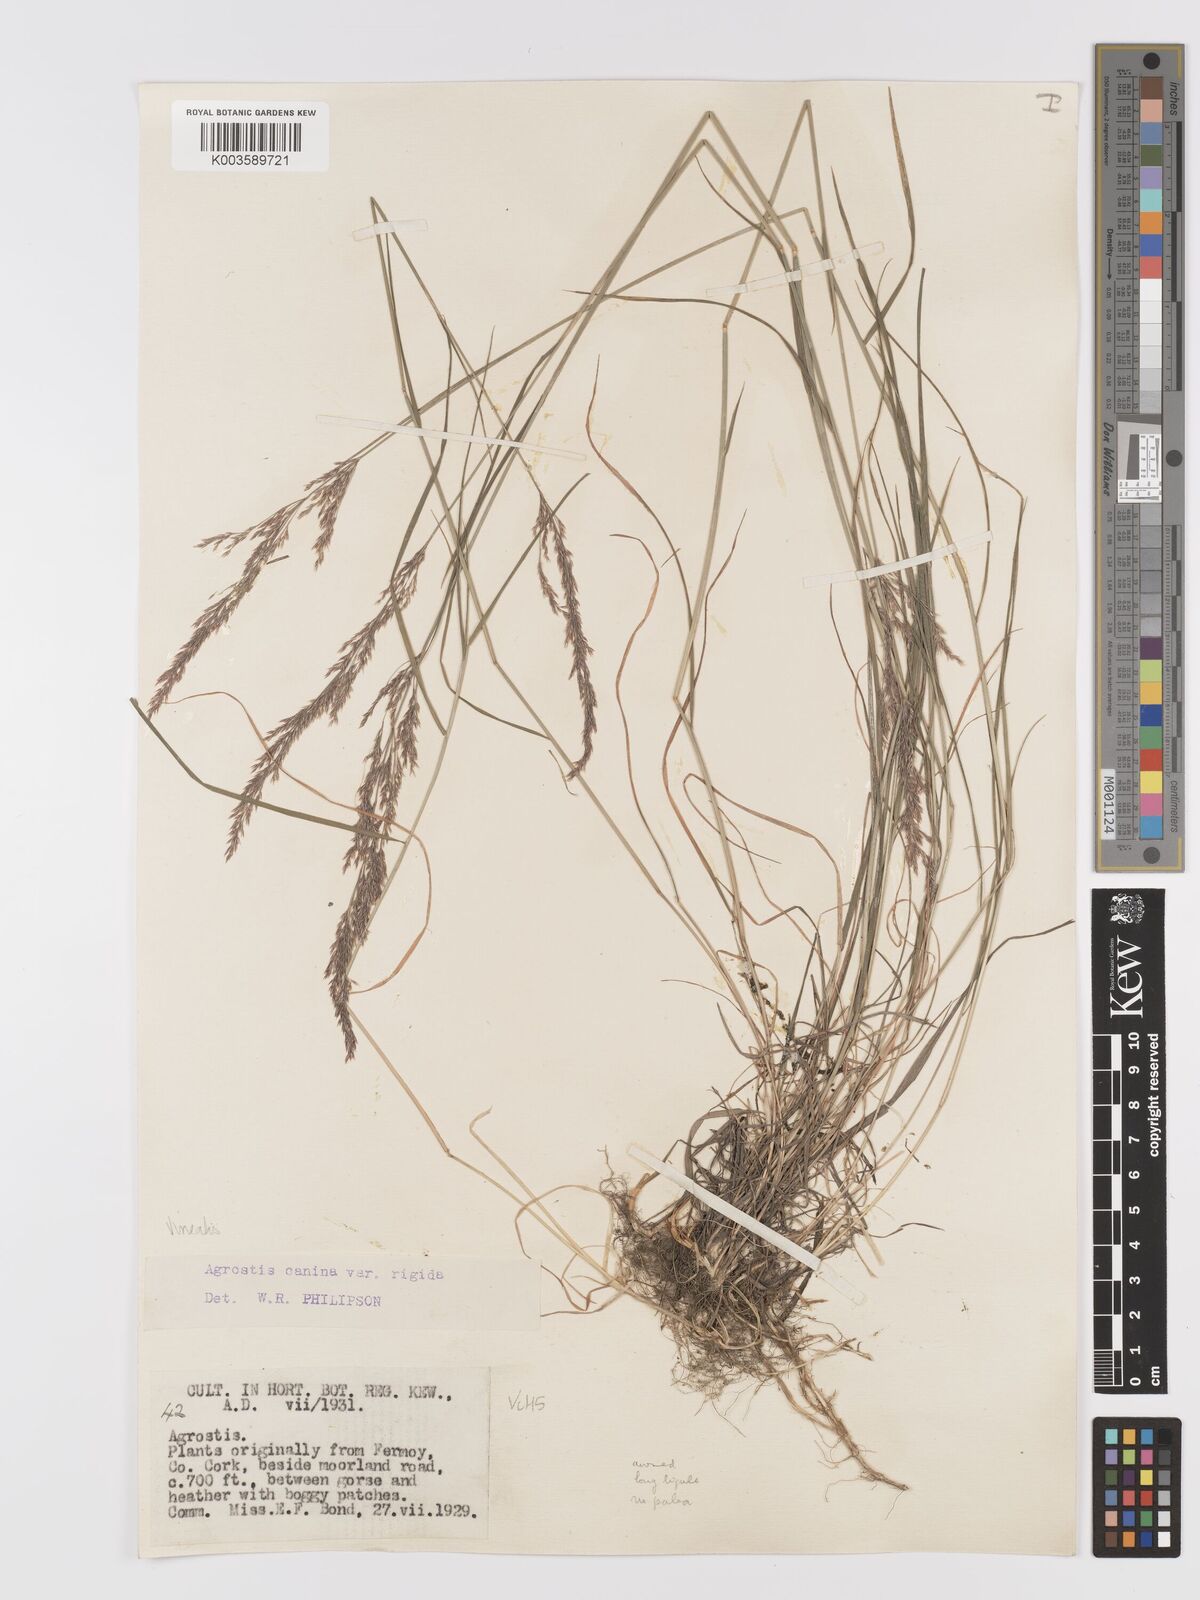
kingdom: Plantae
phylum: Tracheophyta
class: Liliopsida
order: Poales
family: Poaceae
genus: Agrostis
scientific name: Agrostis
